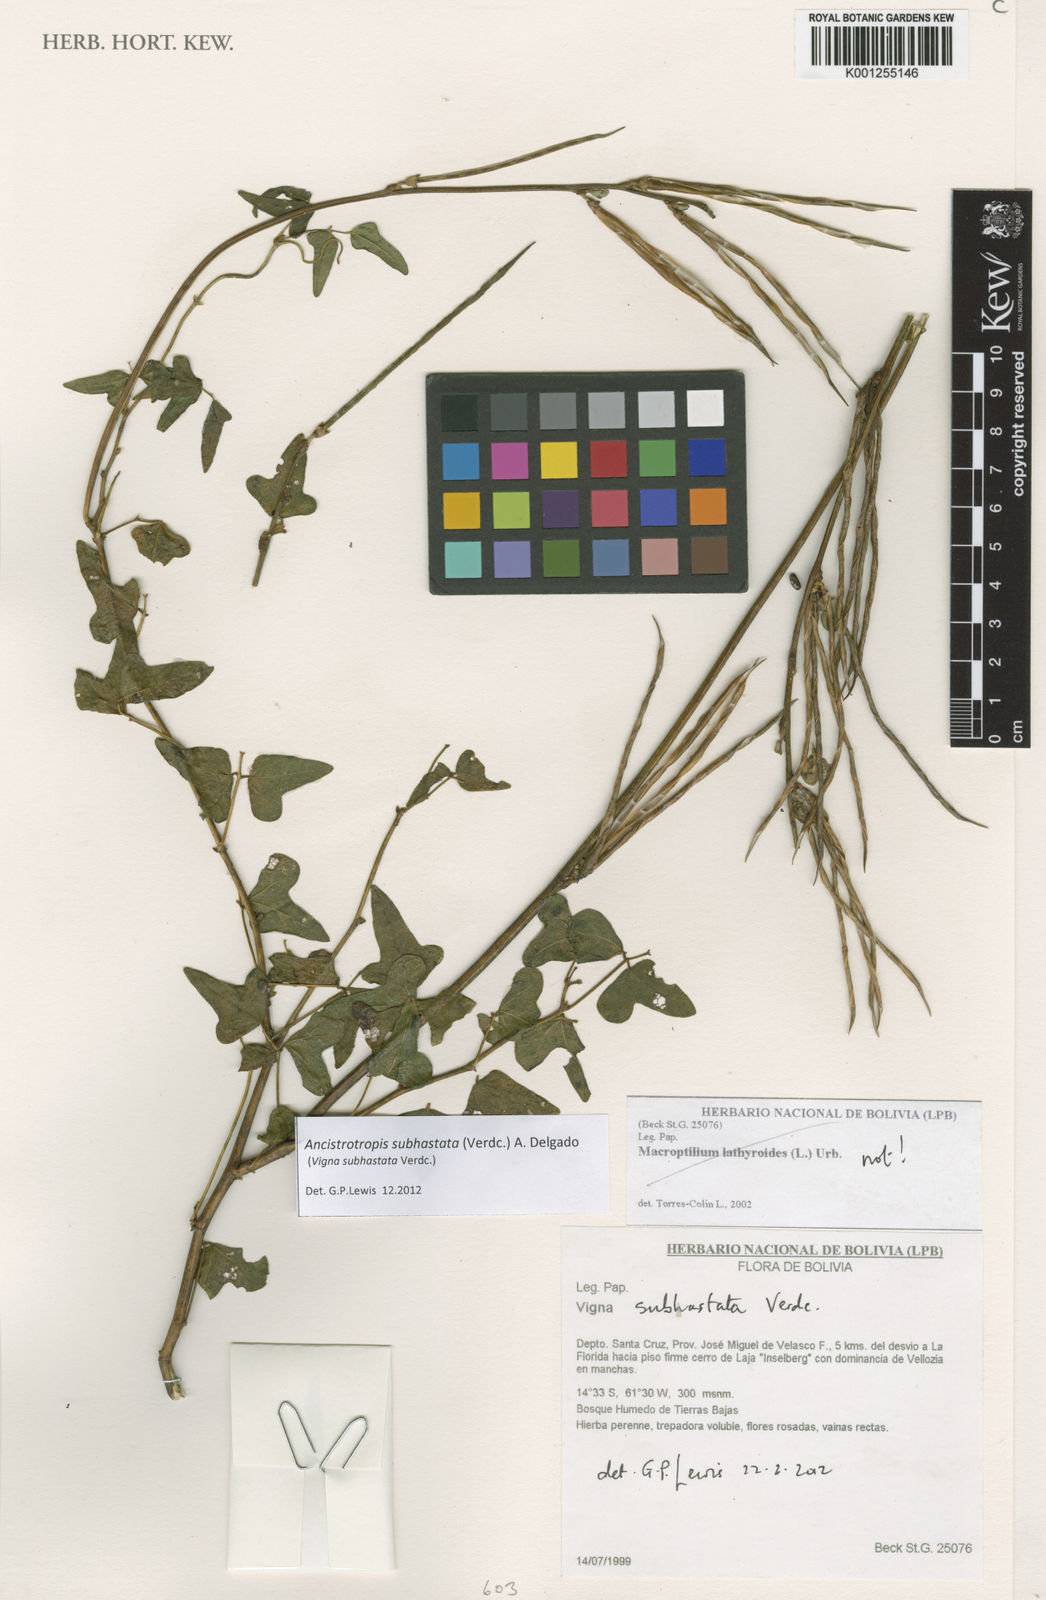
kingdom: Plantae
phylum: Tracheophyta
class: Magnoliopsida
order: Fabales
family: Fabaceae
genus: Ancistrotropis
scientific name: Ancistrotropis subhastata
